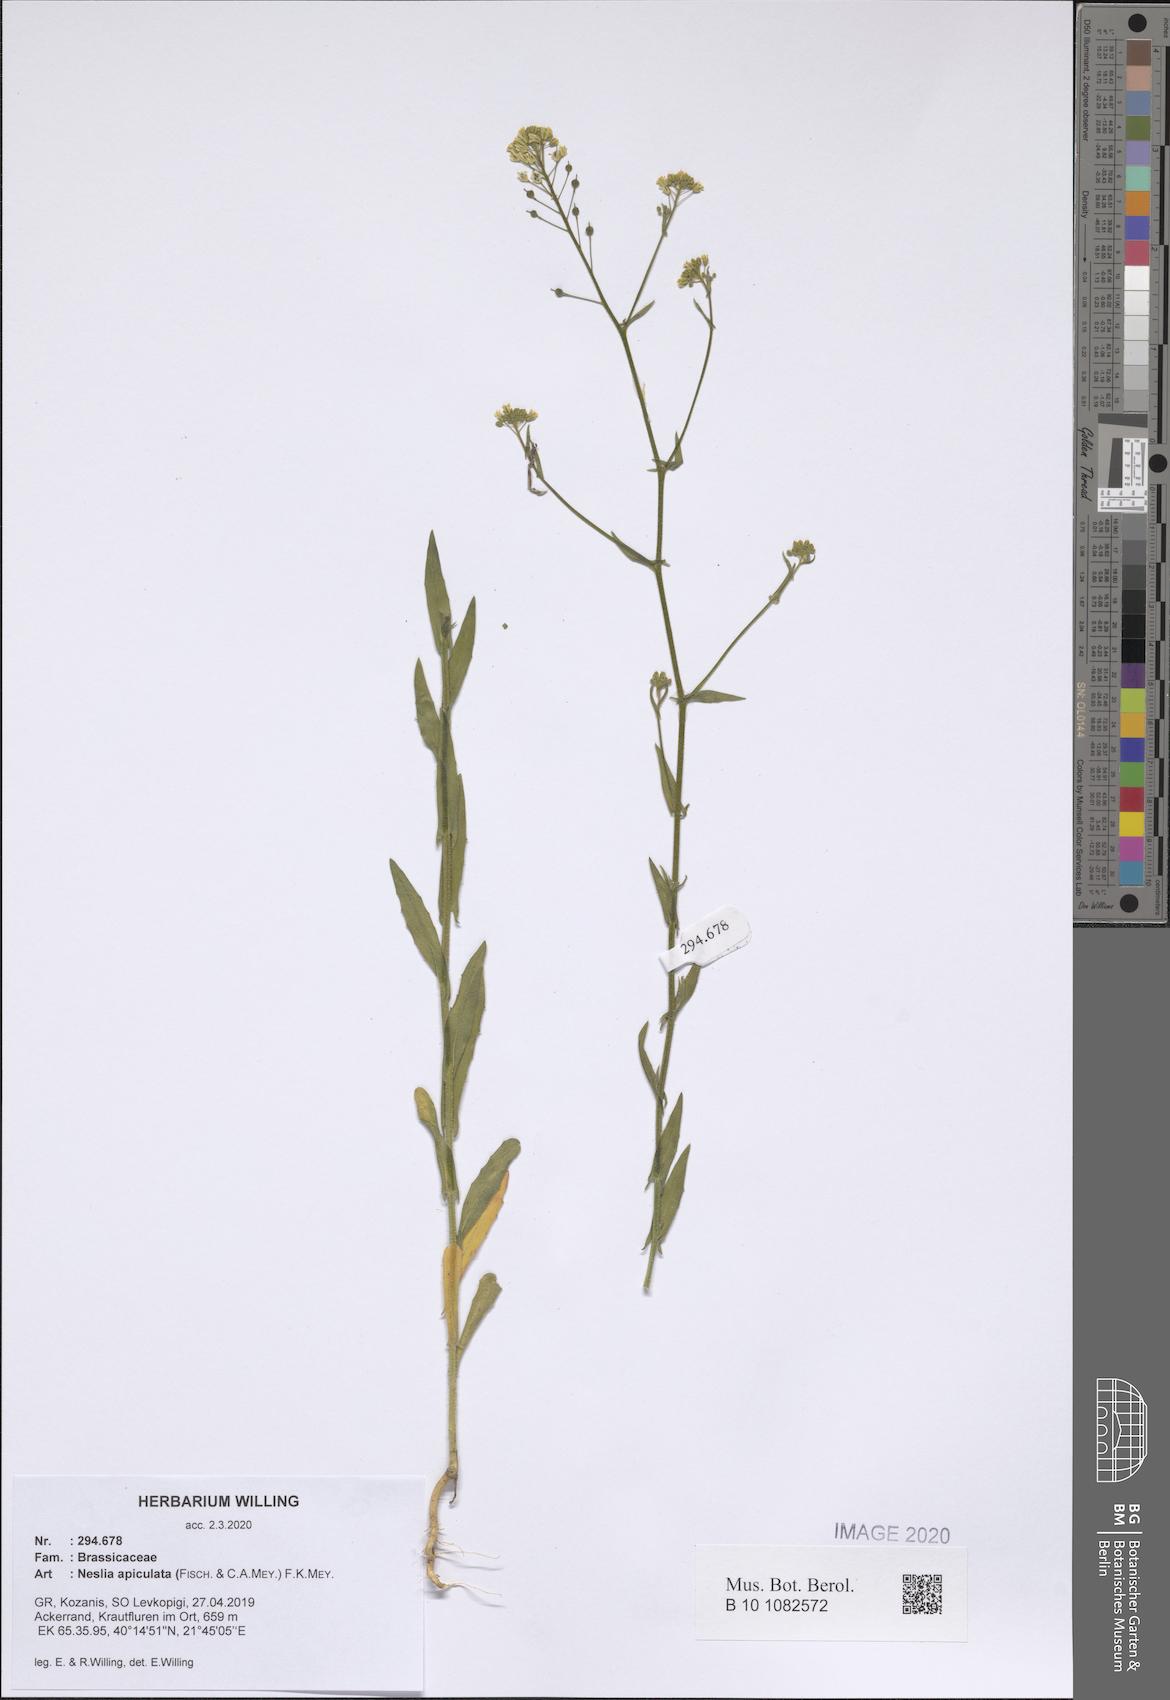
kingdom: Plantae
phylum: Tracheophyta
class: Magnoliopsida
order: Brassicales
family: Brassicaceae
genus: Neslia
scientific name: Neslia paniculata
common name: Ball mustard
